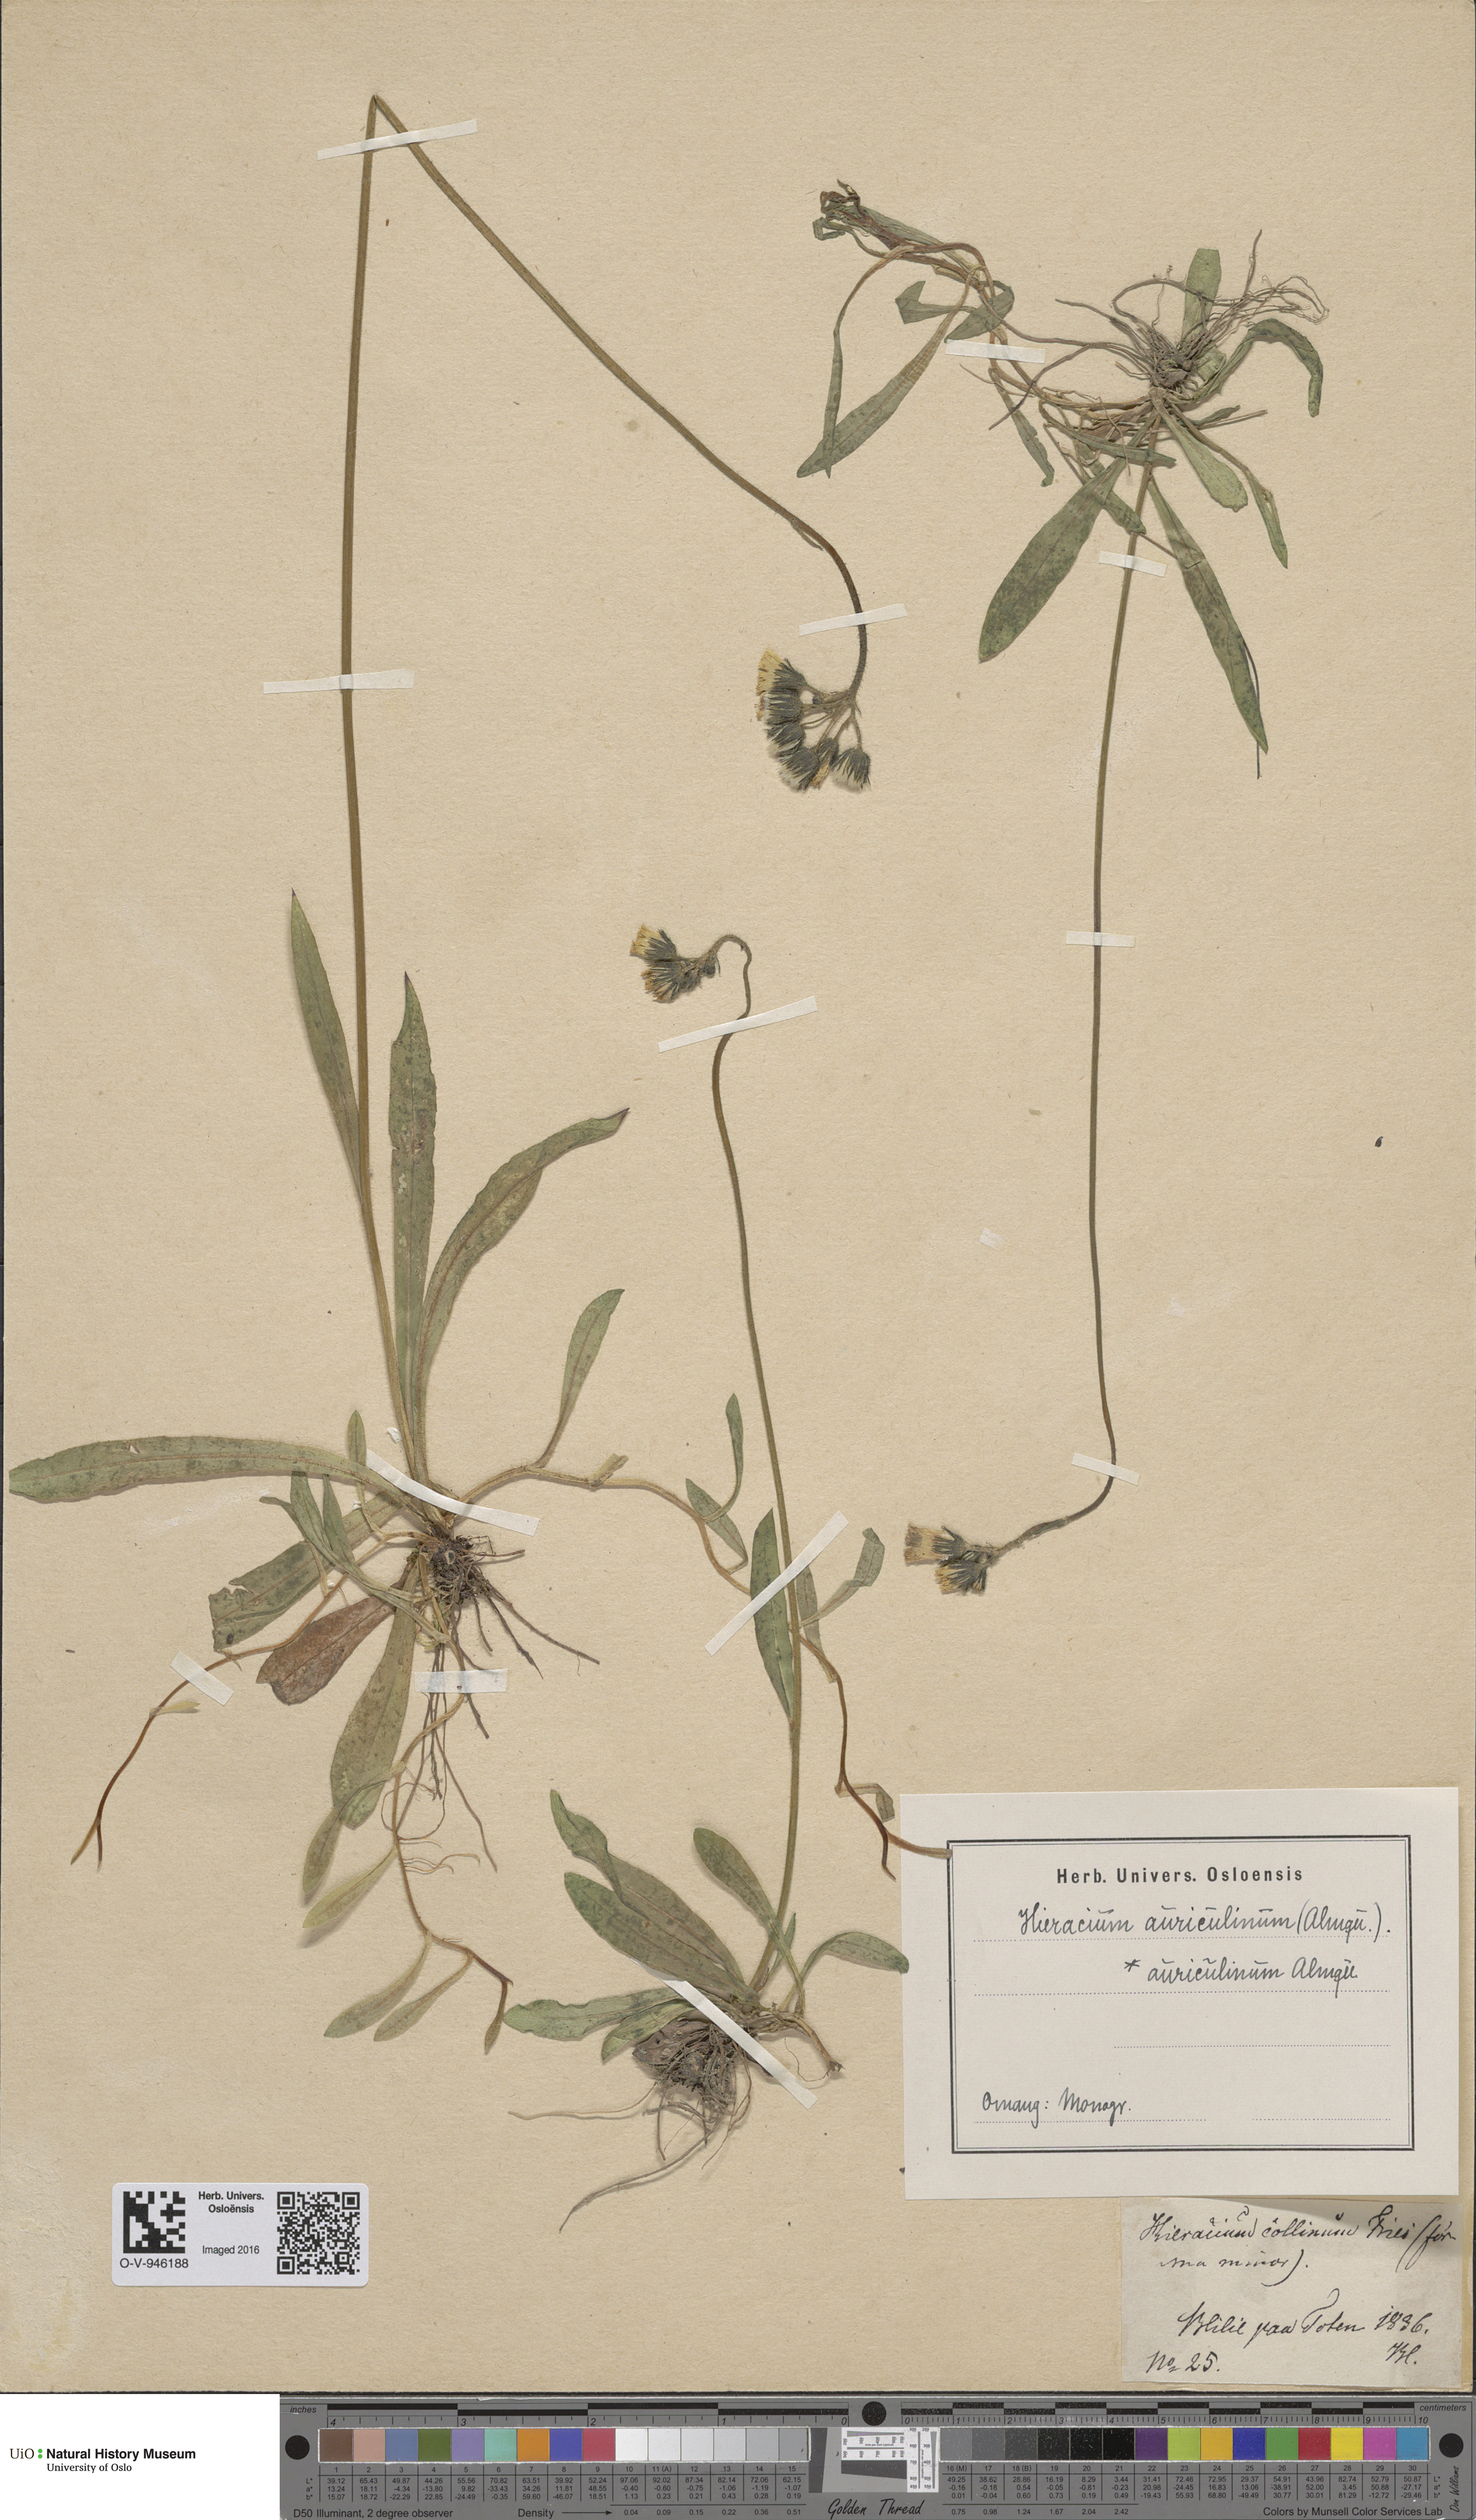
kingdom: Plantae
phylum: Tracheophyta
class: Magnoliopsida
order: Asterales
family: Asteraceae
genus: Pilosella
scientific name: Pilosella dubia
